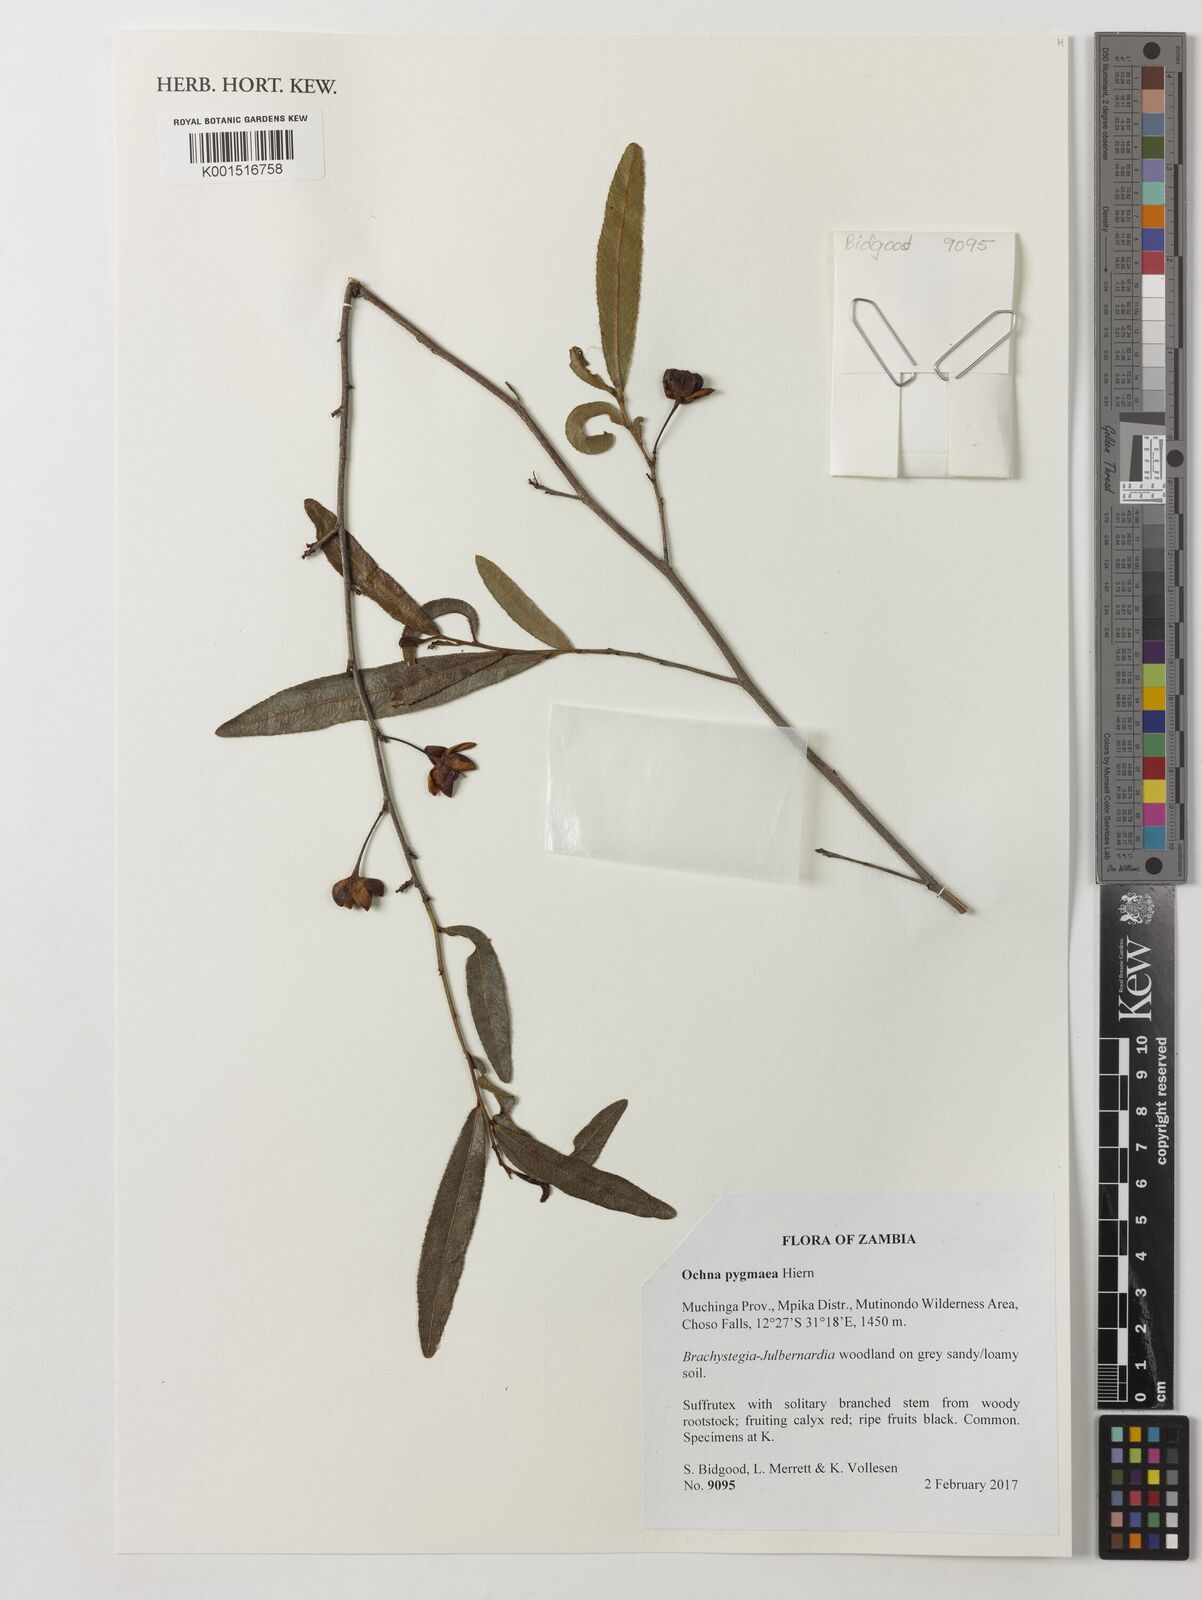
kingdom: Plantae
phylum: Tracheophyta
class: Magnoliopsida
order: Malpighiales
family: Ochnaceae
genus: Ochna
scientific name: Ochna pygmaea
